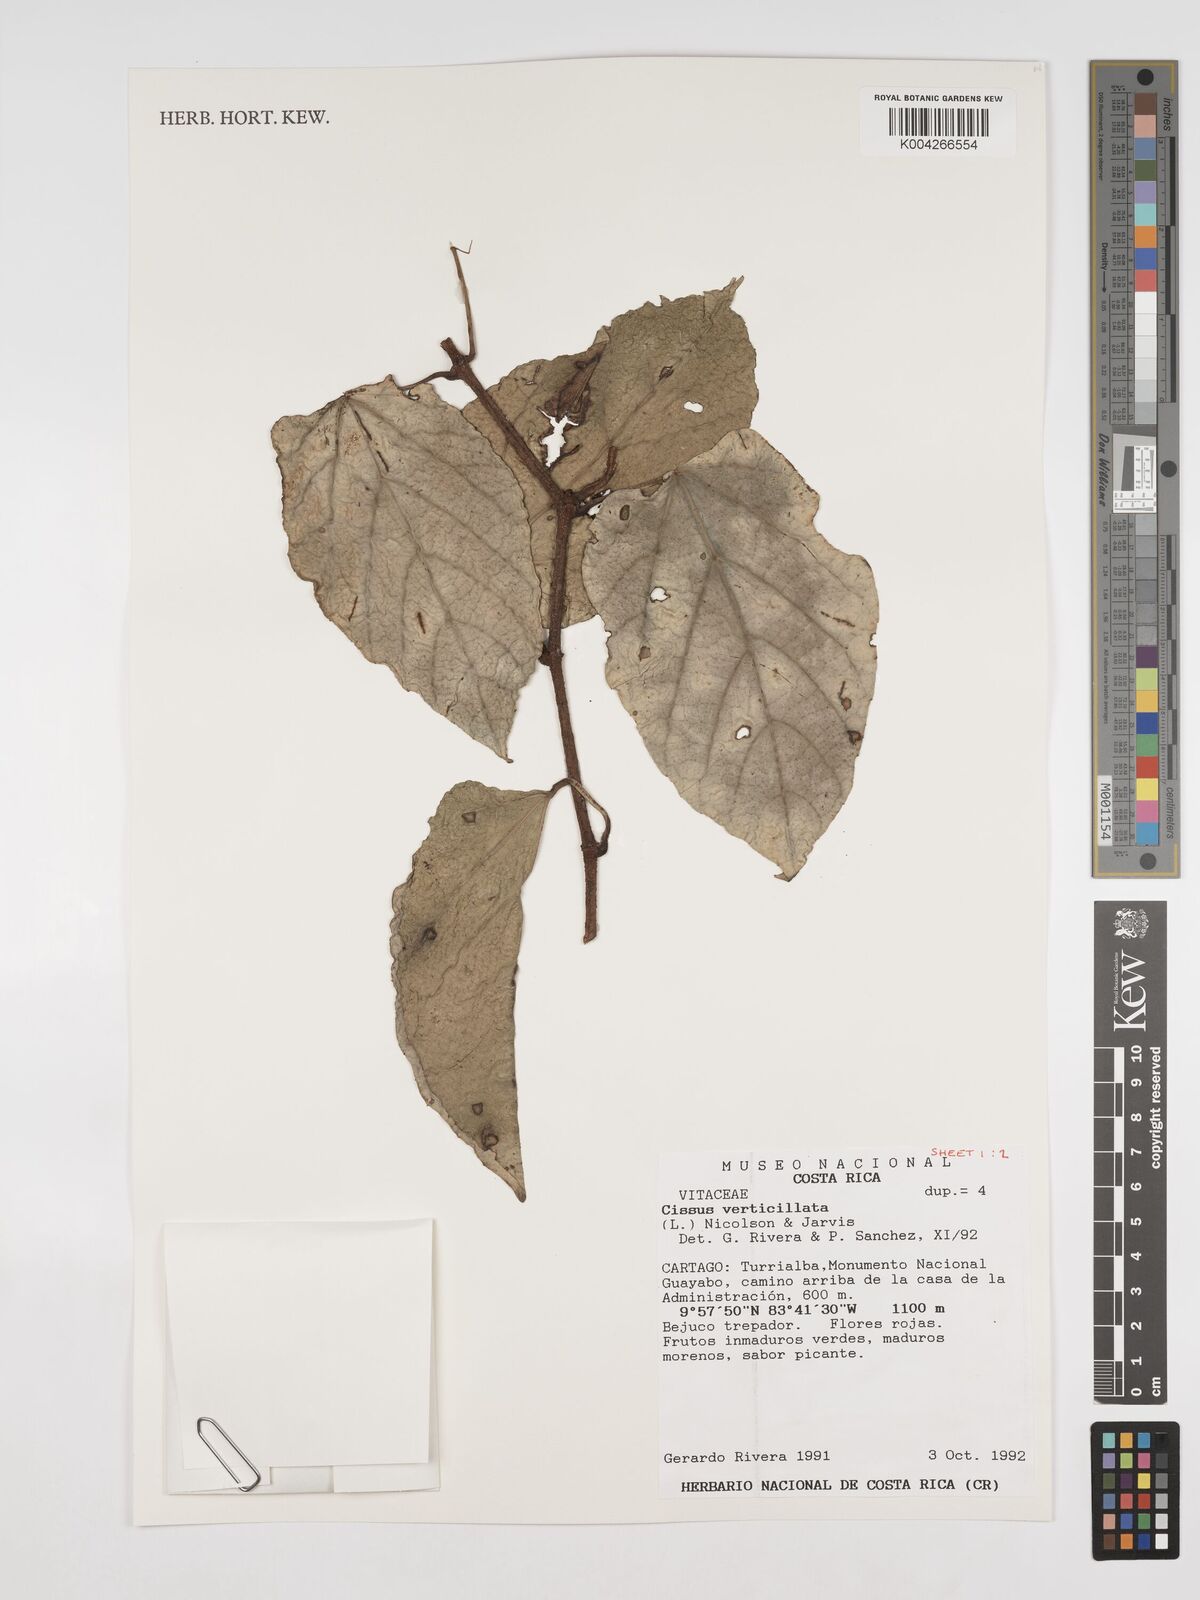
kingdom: Plantae
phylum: Tracheophyta
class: Magnoliopsida
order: Vitales
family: Vitaceae
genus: Cissus
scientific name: Cissus verticillata
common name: Princess vine
